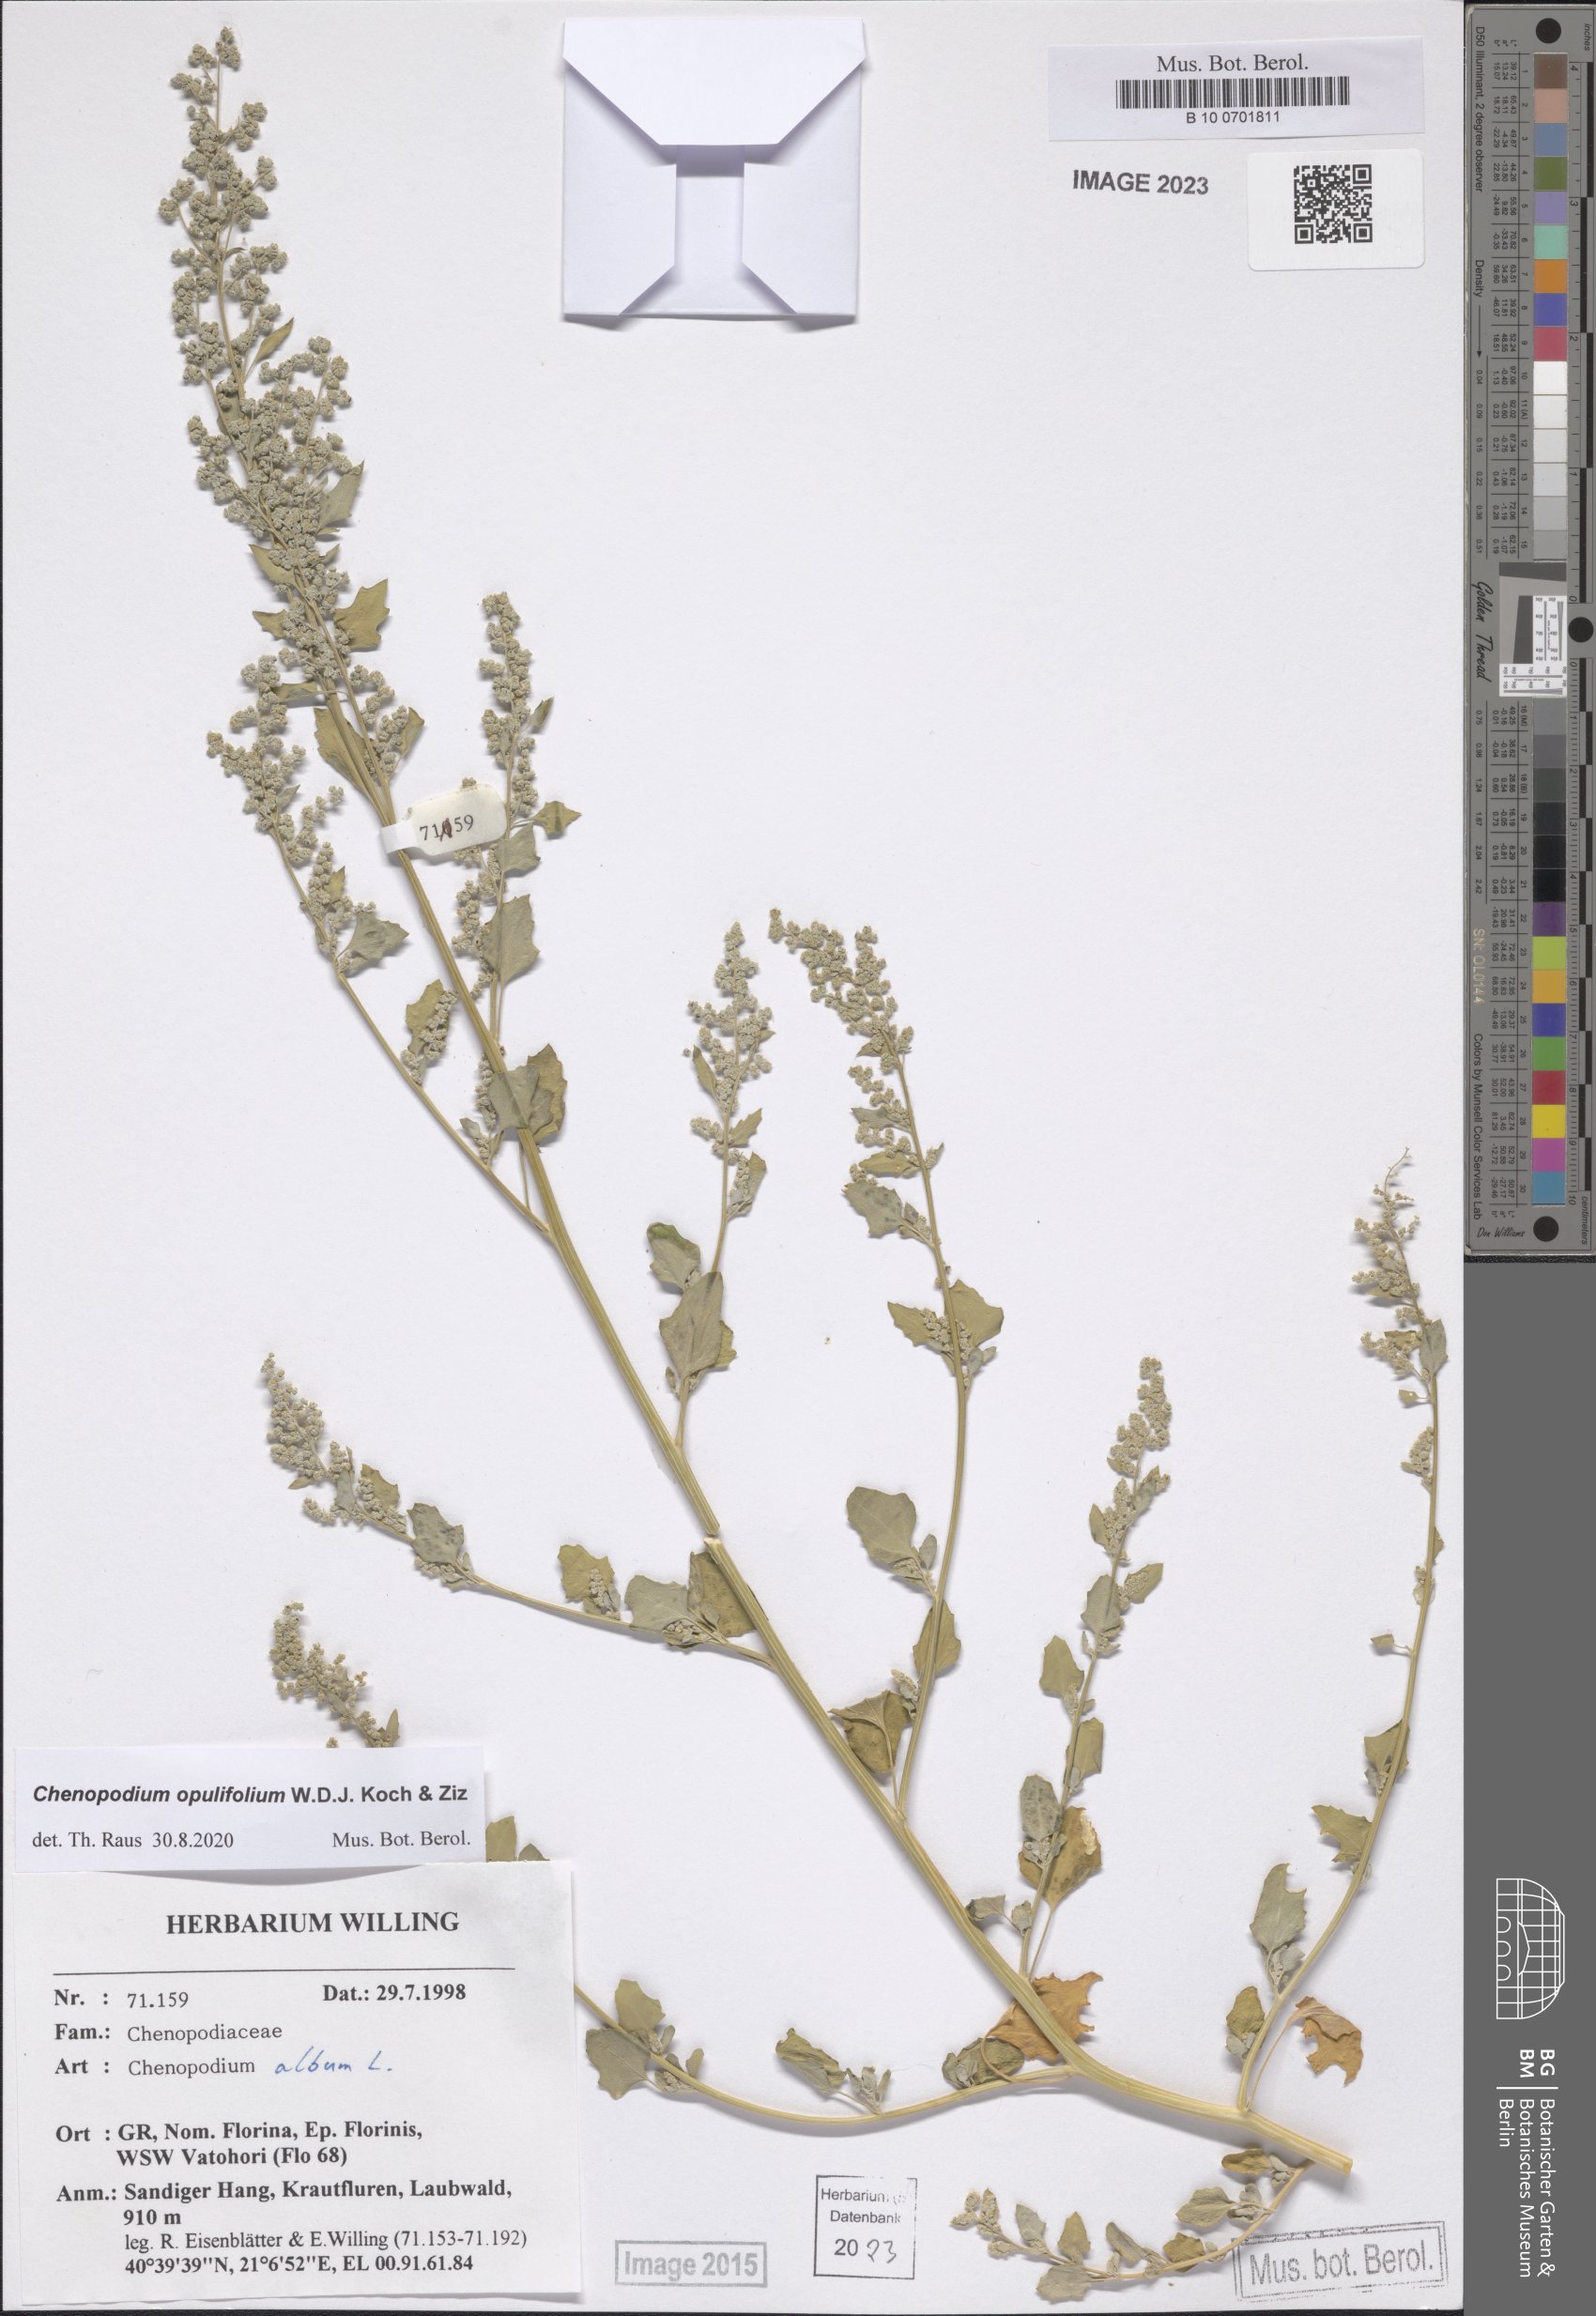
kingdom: Plantae
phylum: Tracheophyta
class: Magnoliopsida
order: Caryophyllales
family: Amaranthaceae
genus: Chenopodium
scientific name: Chenopodium opulifolium
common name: Grey goosefoot
